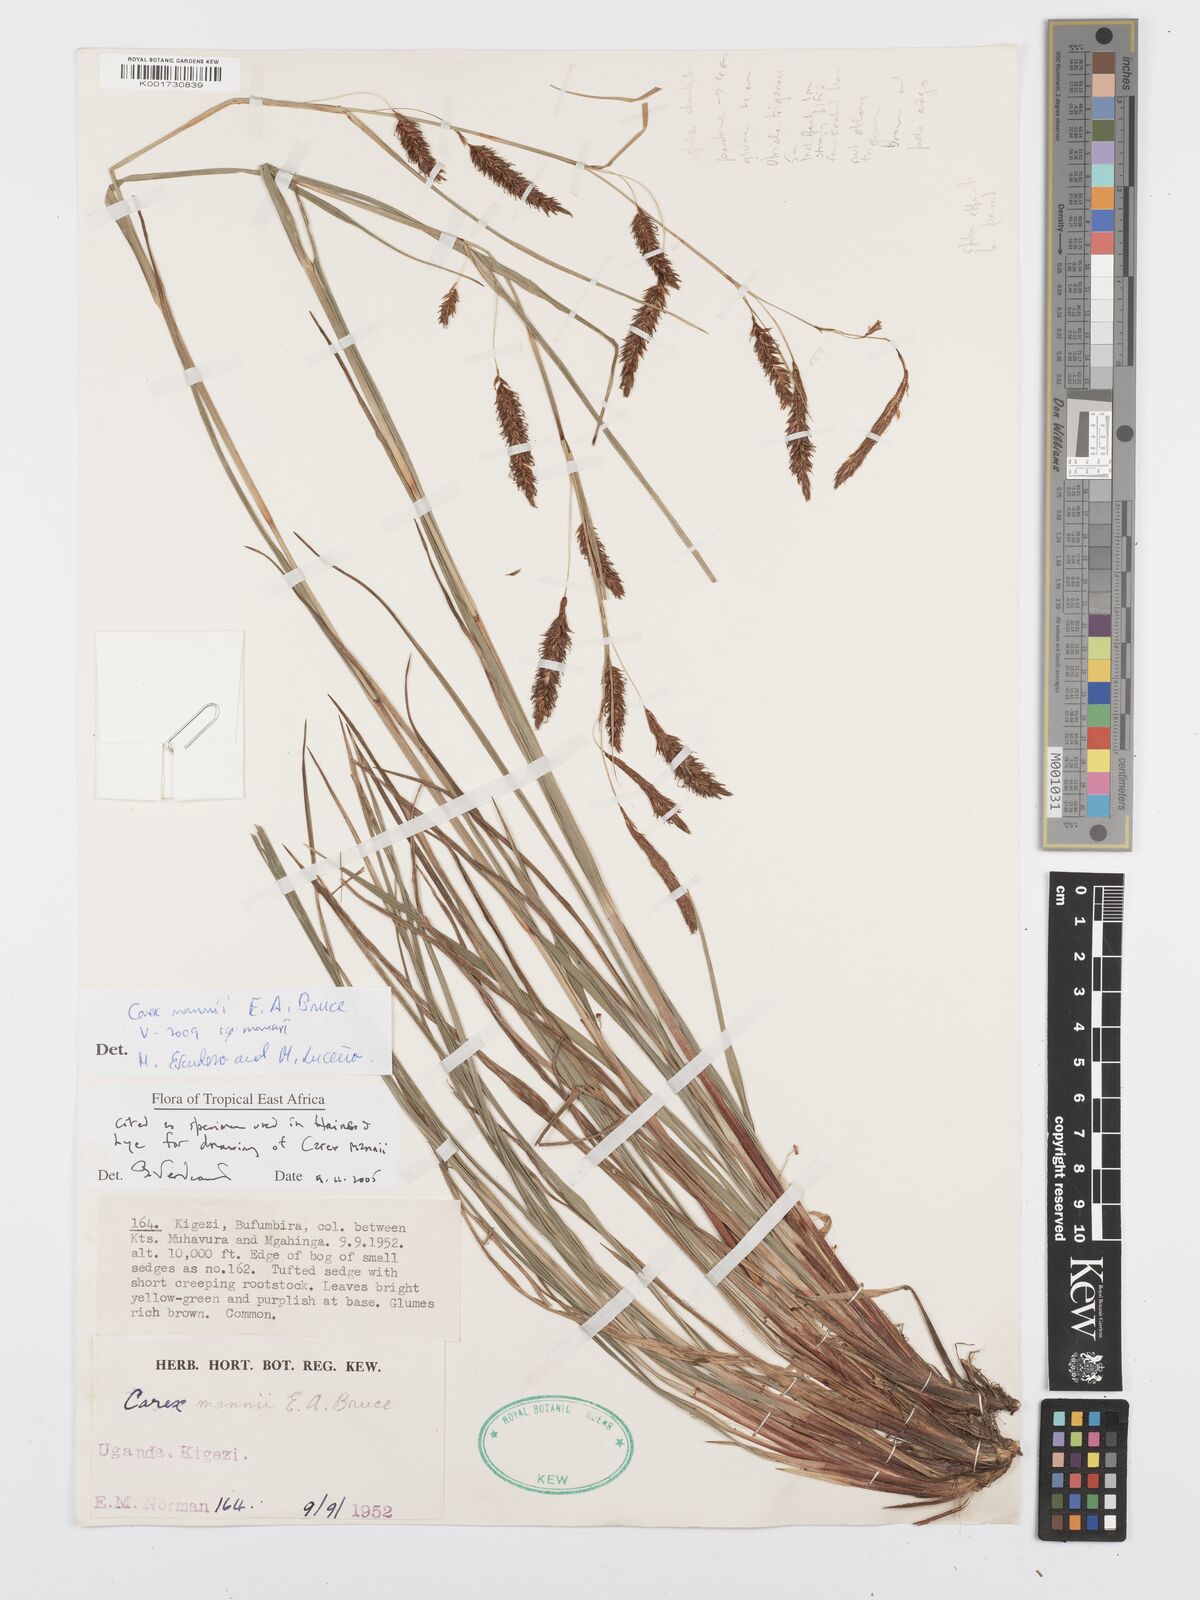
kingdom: Plantae
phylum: Tracheophyta
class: Liliopsida
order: Poales
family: Cyperaceae
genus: Carex
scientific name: Carex mannii
